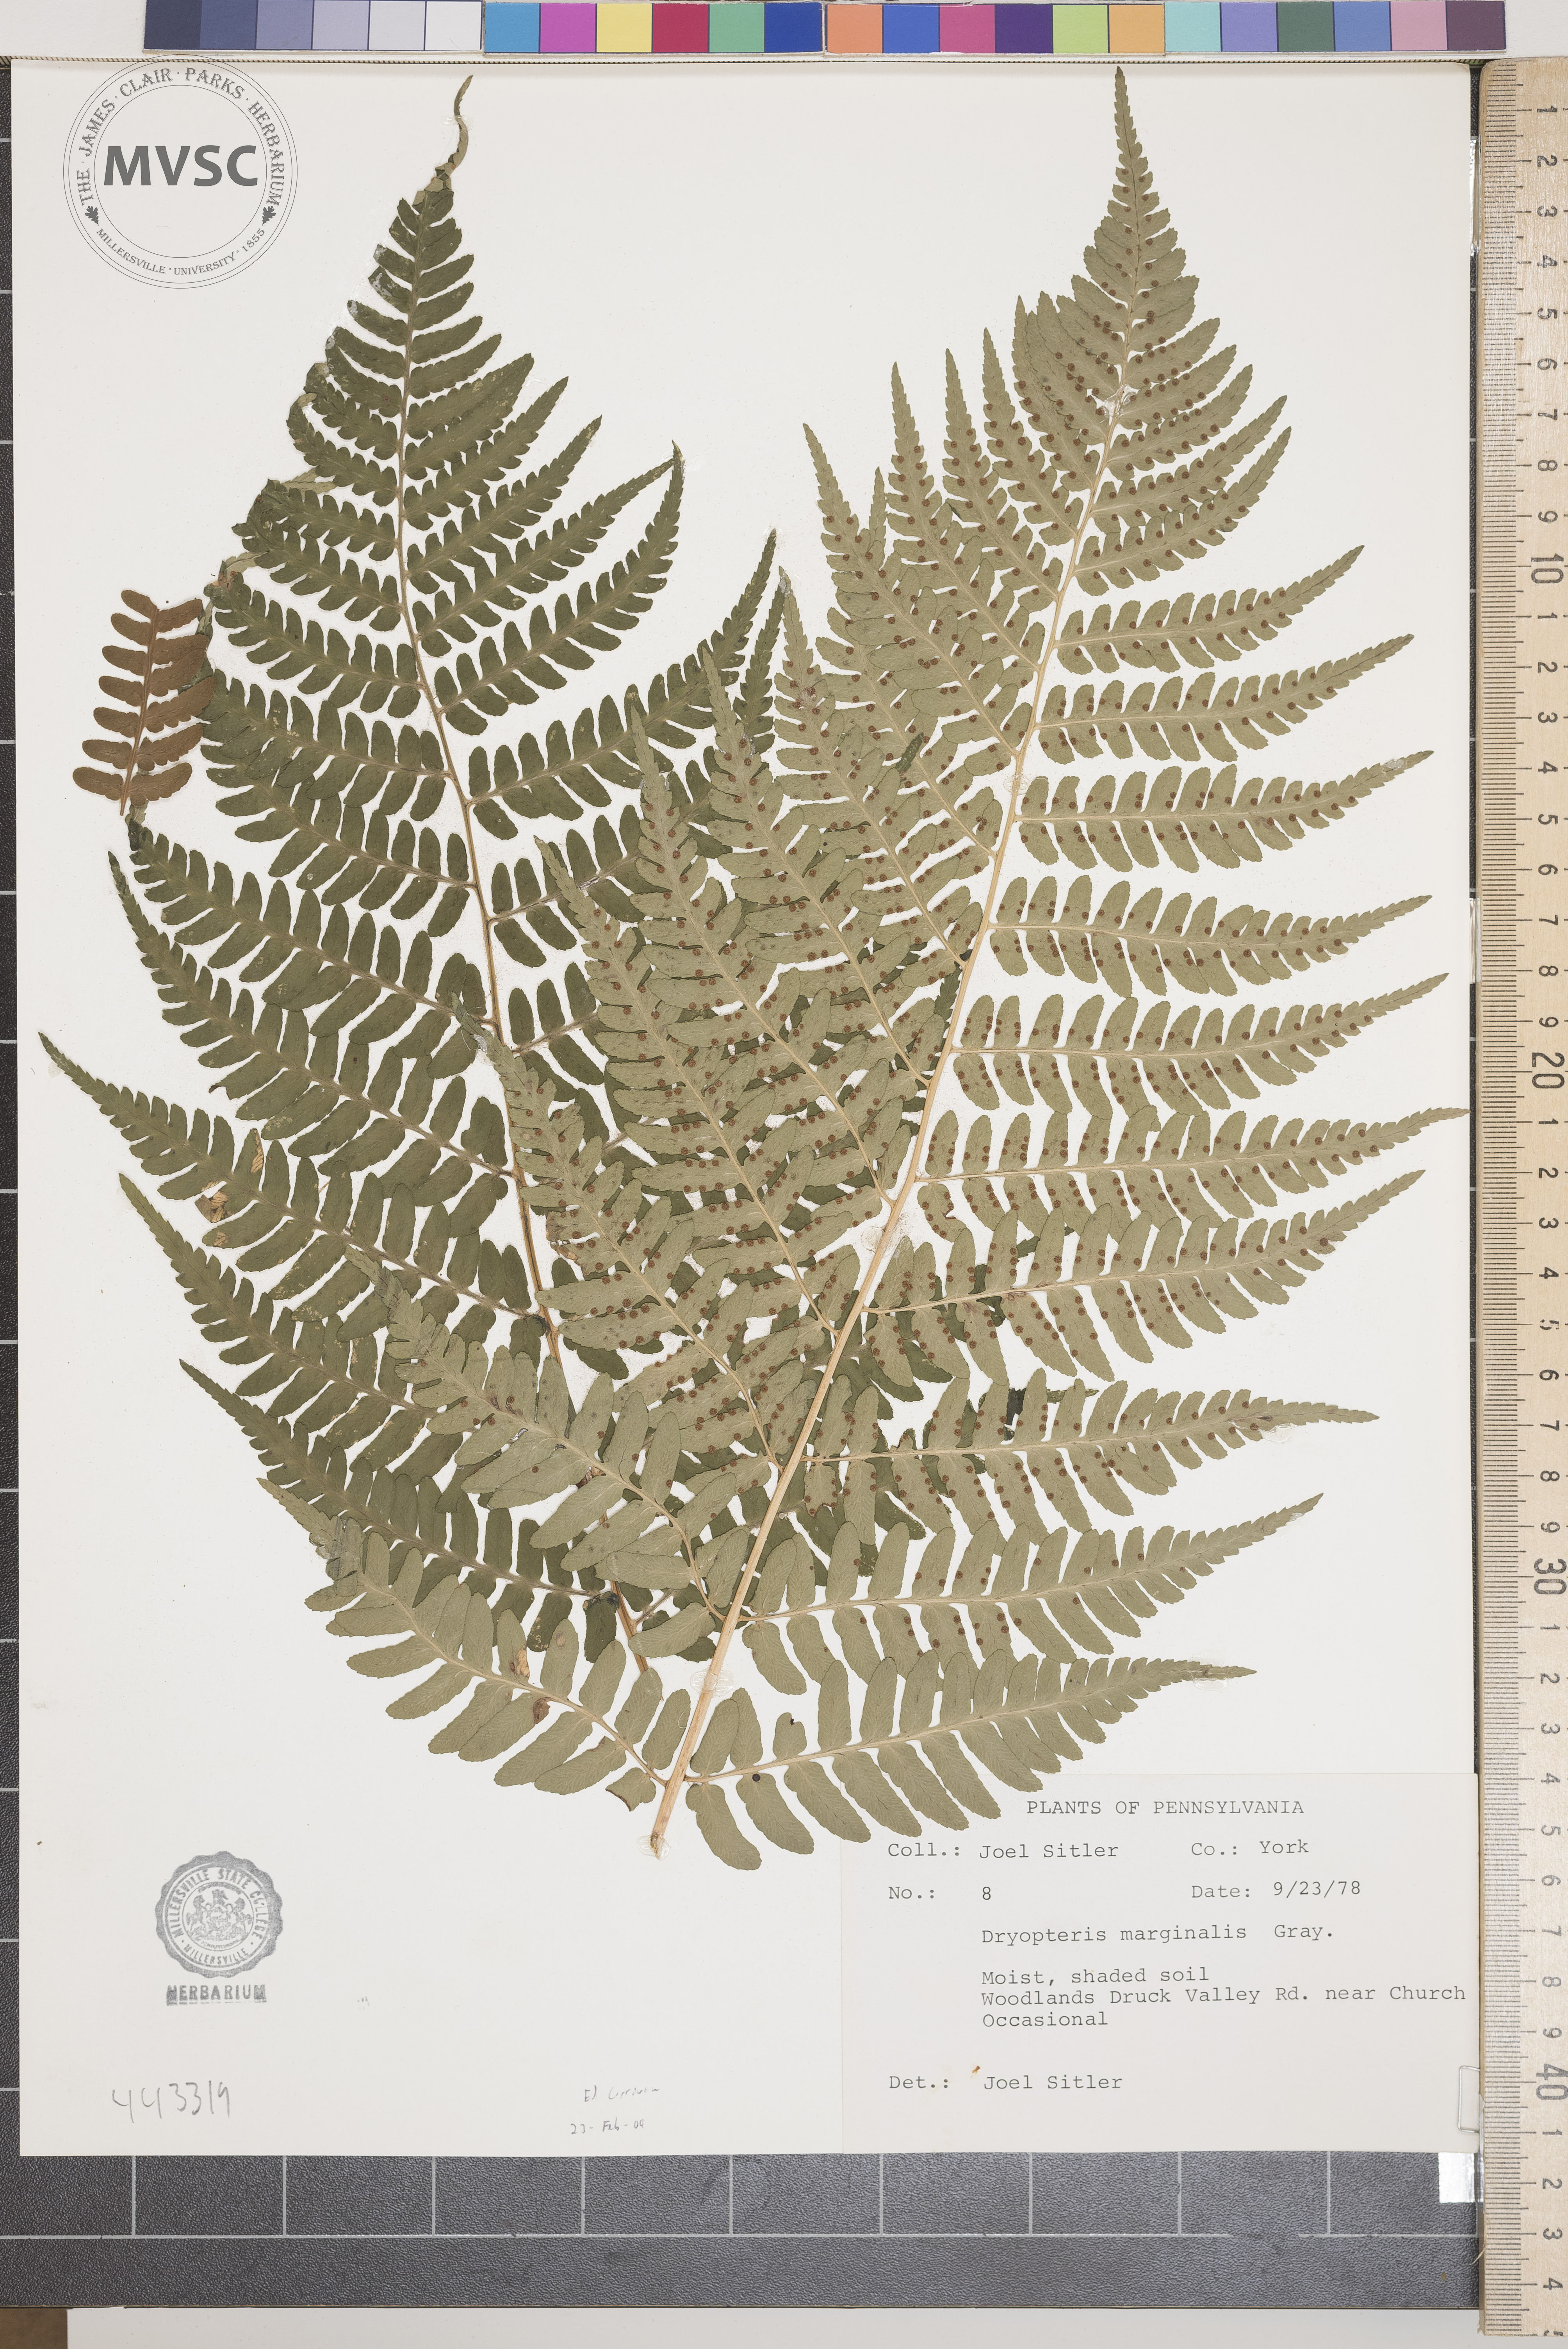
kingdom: Plantae
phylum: Tracheophyta
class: Polypodiopsida
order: Polypodiales
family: Dryopteridaceae
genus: Dryopteris
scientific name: Dryopteris marginalis
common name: Marginal wood fern
